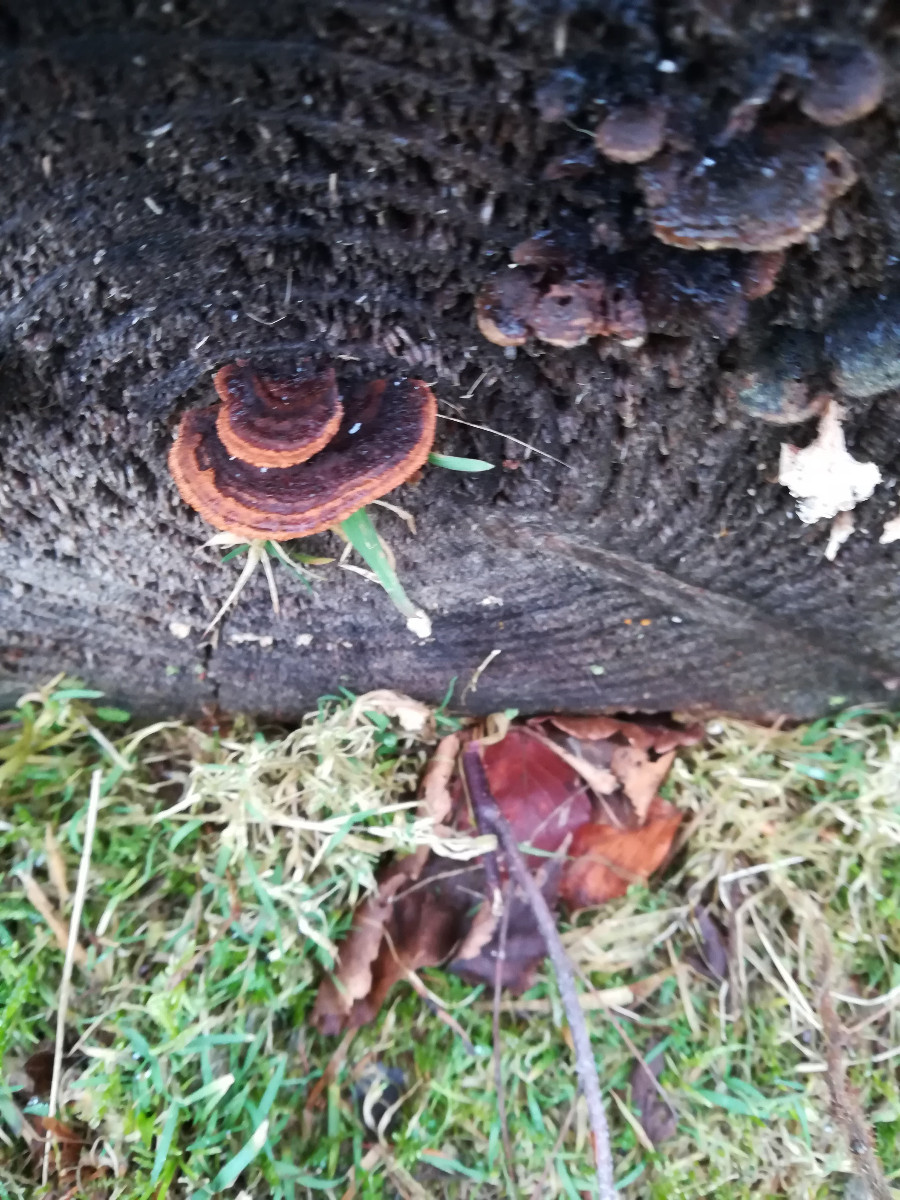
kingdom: Fungi
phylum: Basidiomycota
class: Agaricomycetes
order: Gloeophyllales
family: Gloeophyllaceae
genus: Gloeophyllum
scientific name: Gloeophyllum sepiarium
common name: fyrre-korkhat
